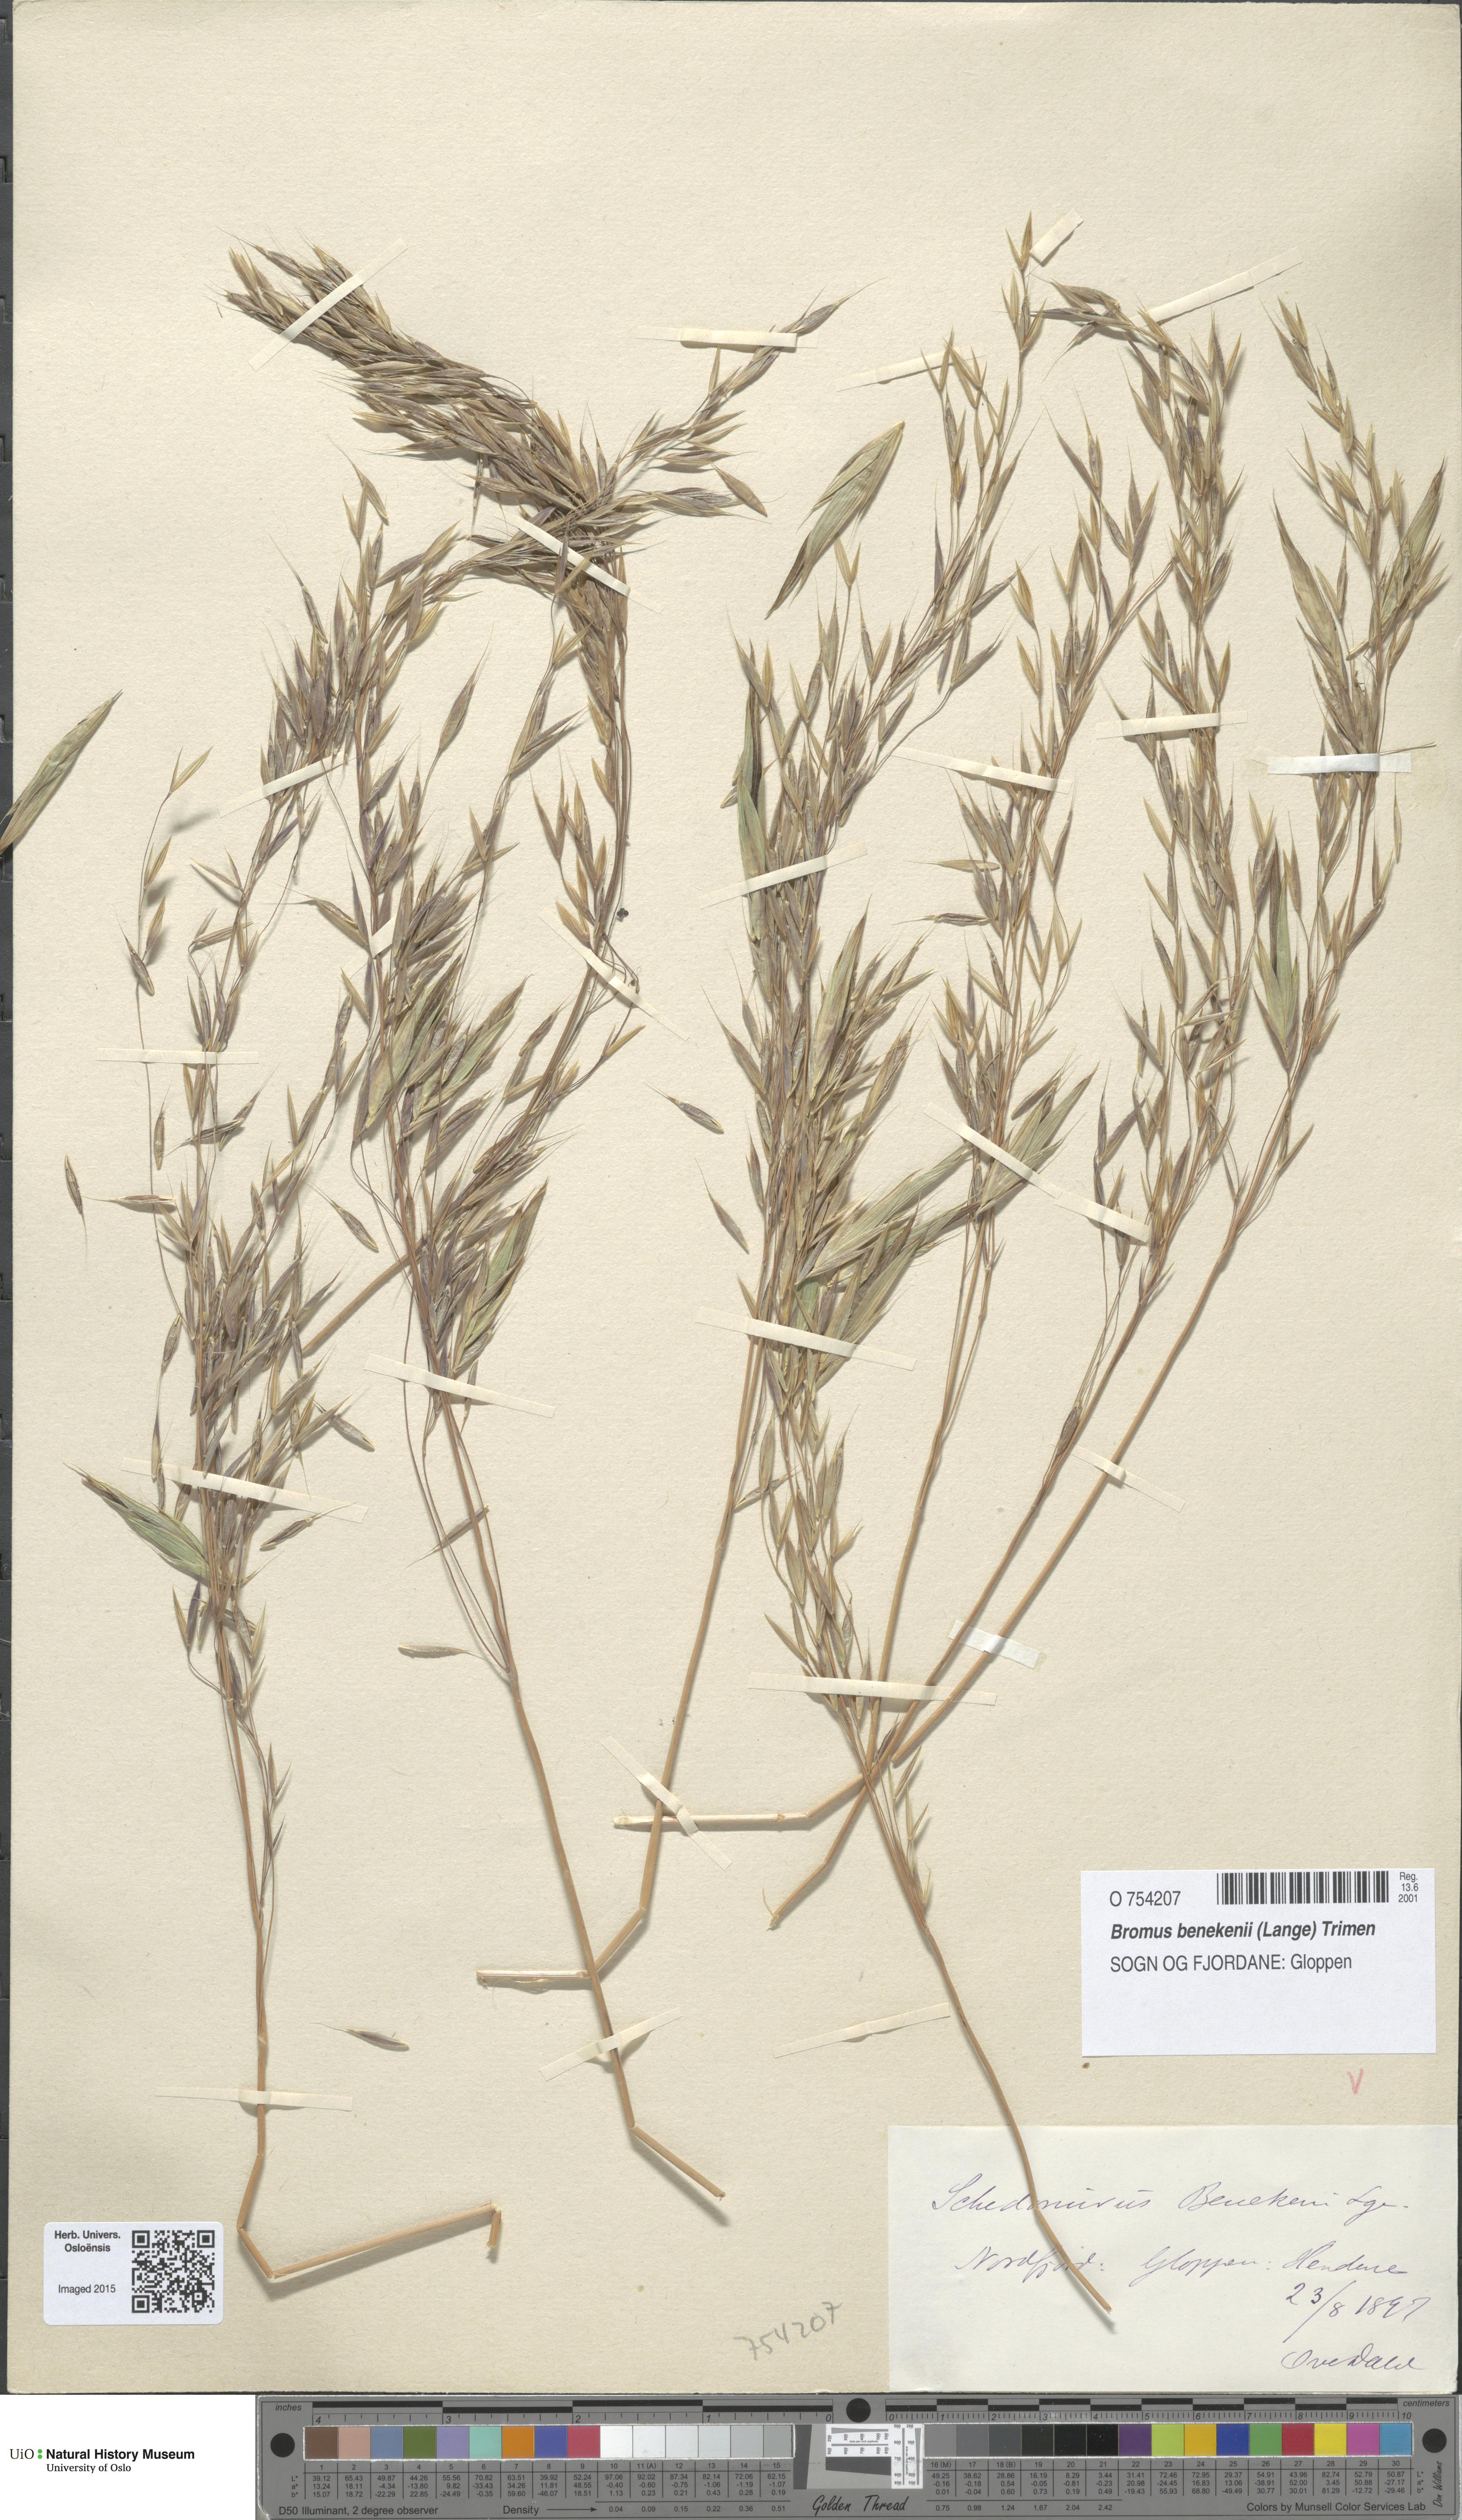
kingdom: Plantae
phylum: Tracheophyta
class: Liliopsida
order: Poales
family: Poaceae
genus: Bromus
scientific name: Bromus benekenii
